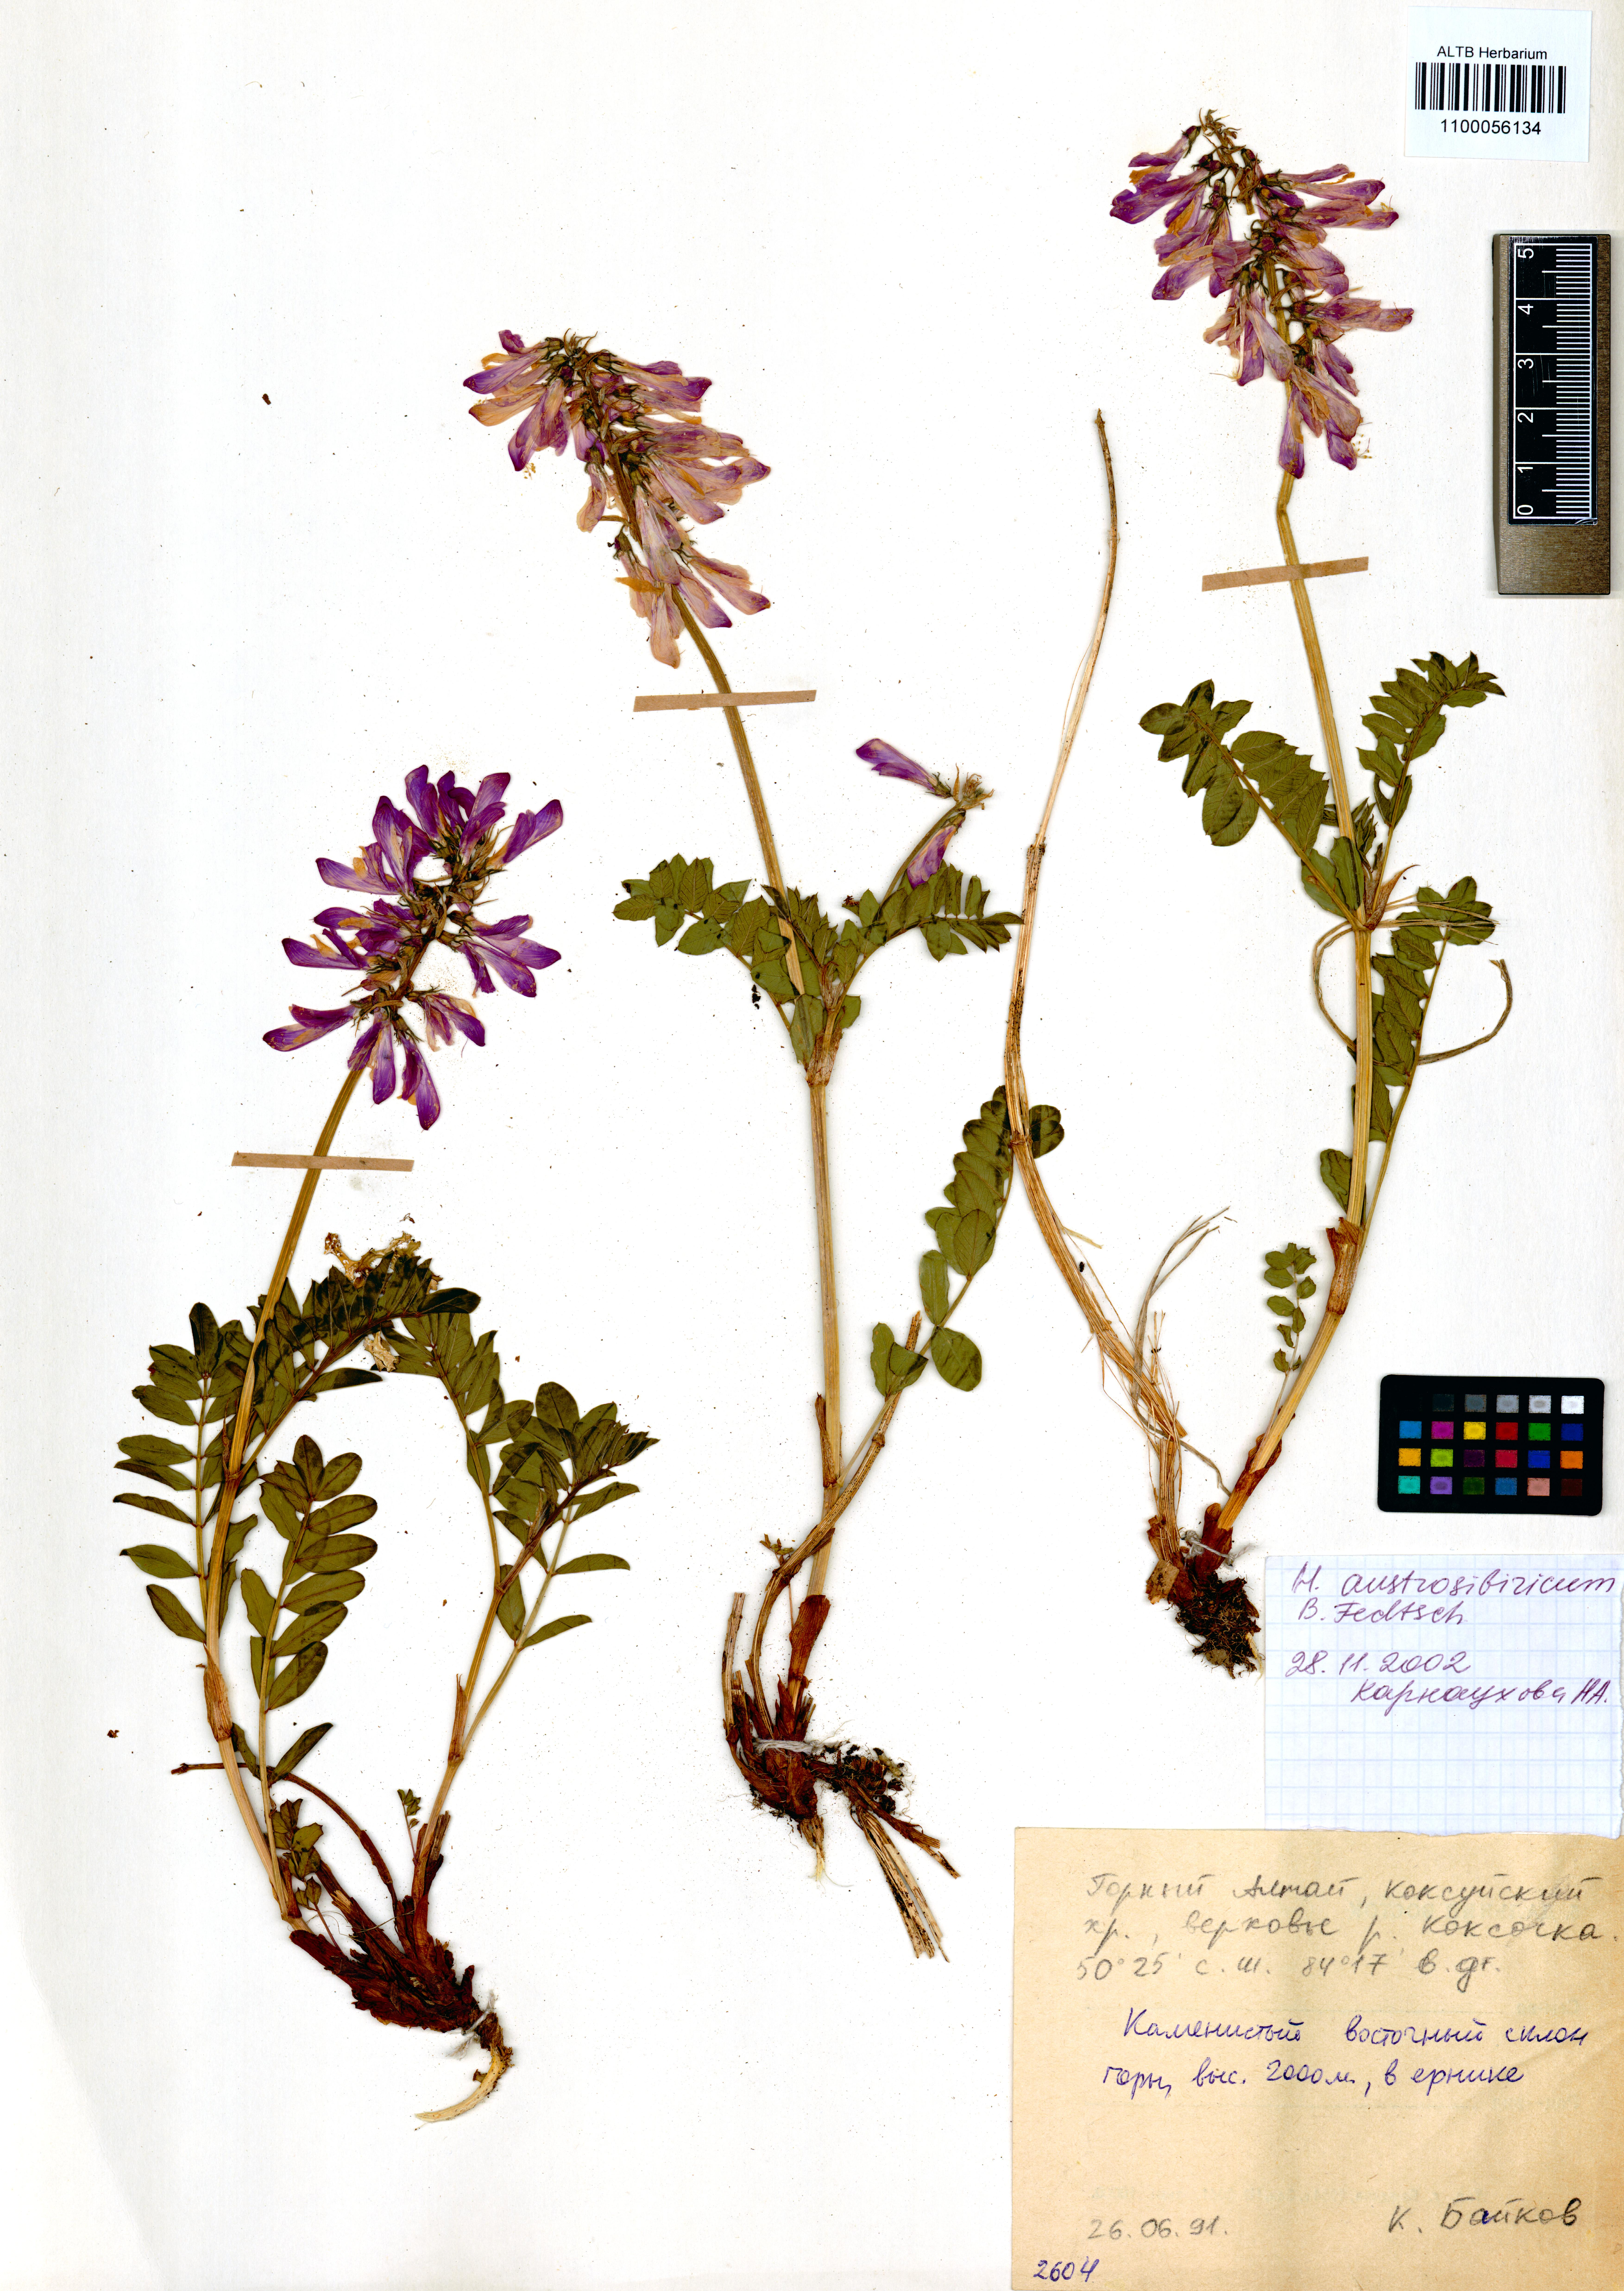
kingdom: Plantae
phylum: Tracheophyta
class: Magnoliopsida
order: Fabales
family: Fabaceae
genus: Hedysarum
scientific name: Hedysarum neglectum
